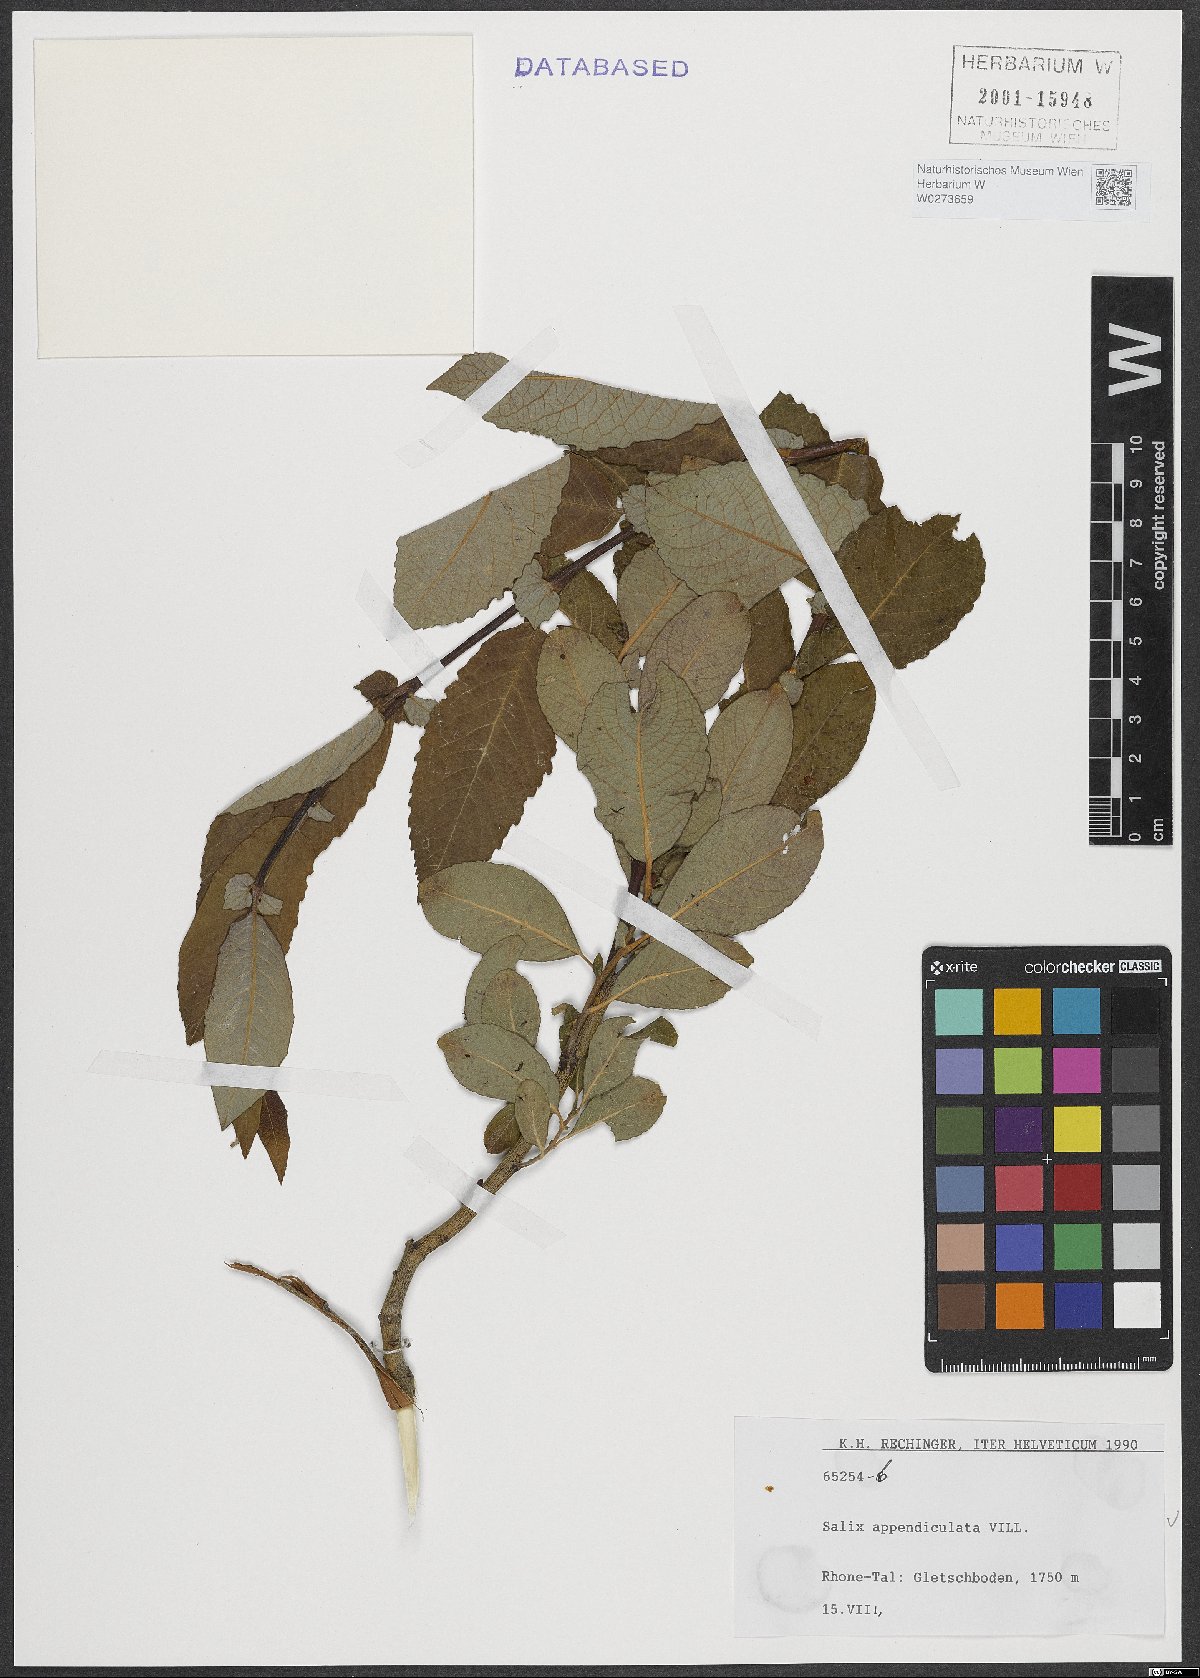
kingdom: Plantae
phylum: Tracheophyta
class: Magnoliopsida
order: Malpighiales
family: Salicaceae
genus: Salix
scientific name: Salix appendiculata
